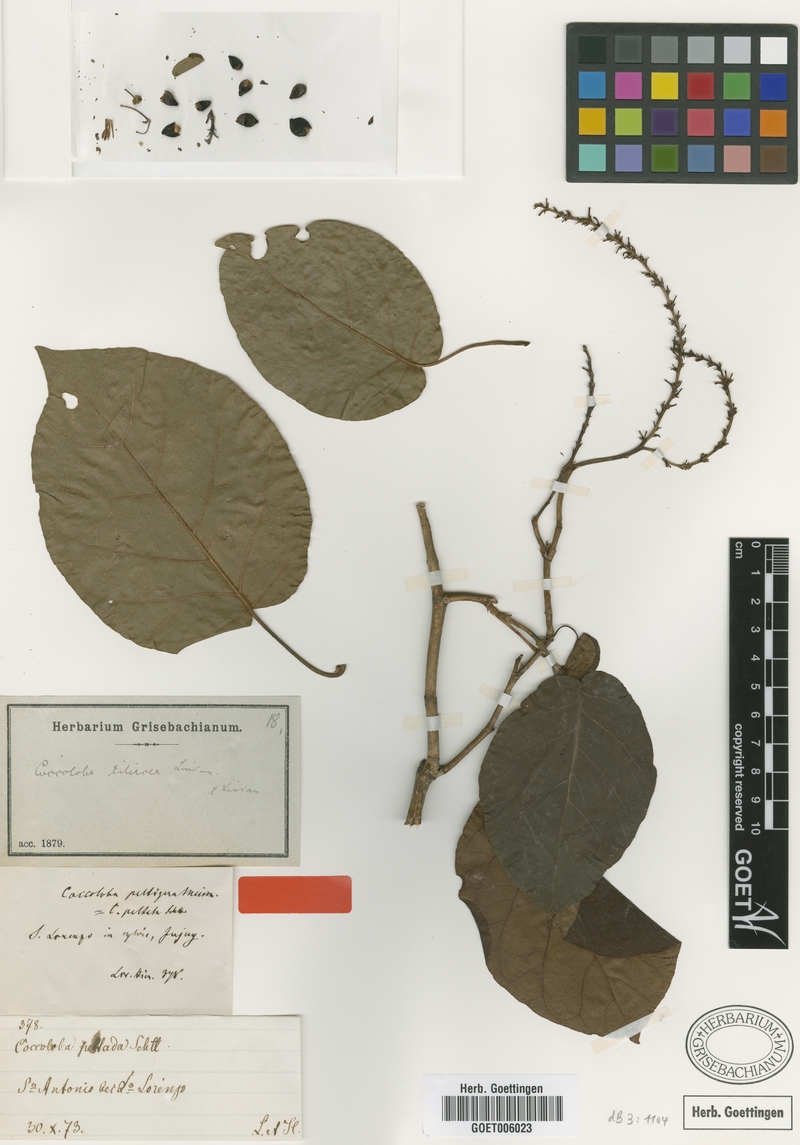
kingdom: Plantae
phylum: Tracheophyta
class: Magnoliopsida
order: Caryophyllales
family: Polygonaceae
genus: Coccoloba
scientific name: Coccoloba tiliacea
